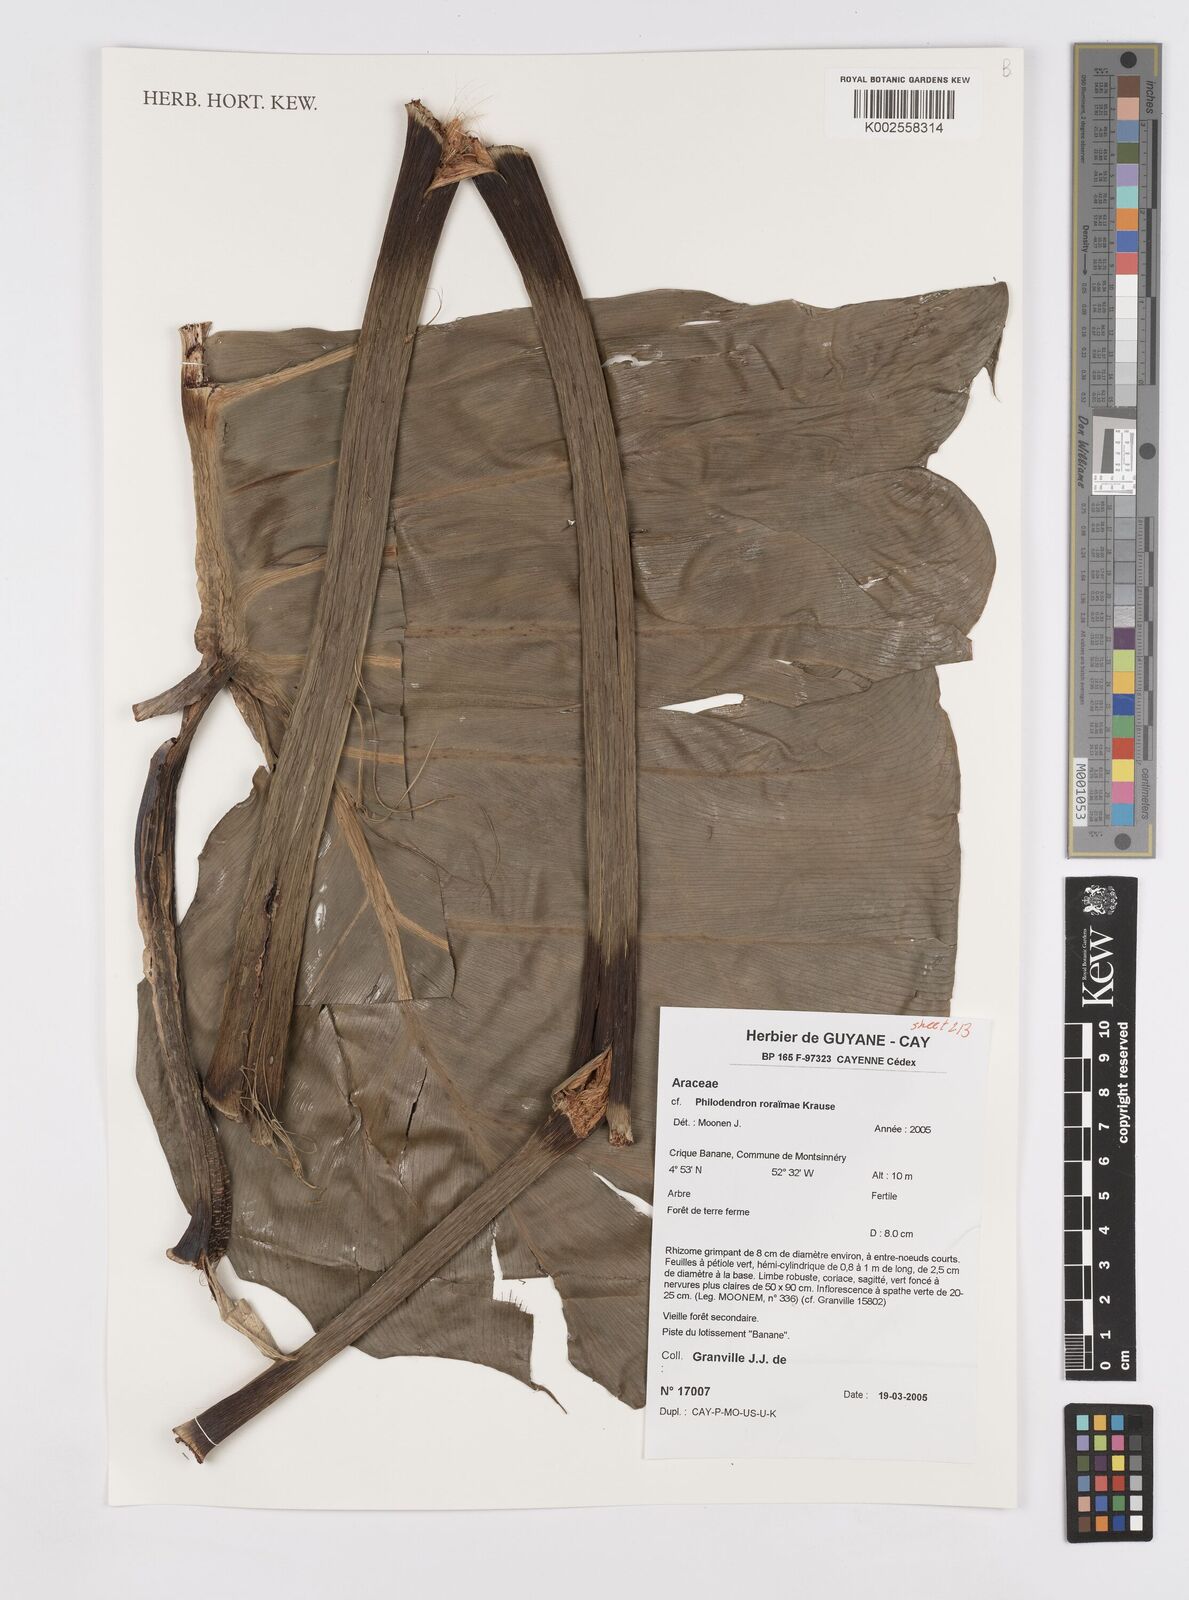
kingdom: Plantae
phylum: Tracheophyta
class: Liliopsida
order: Alismatales
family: Araceae
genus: Philodendron
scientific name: Philodendron roraimae
